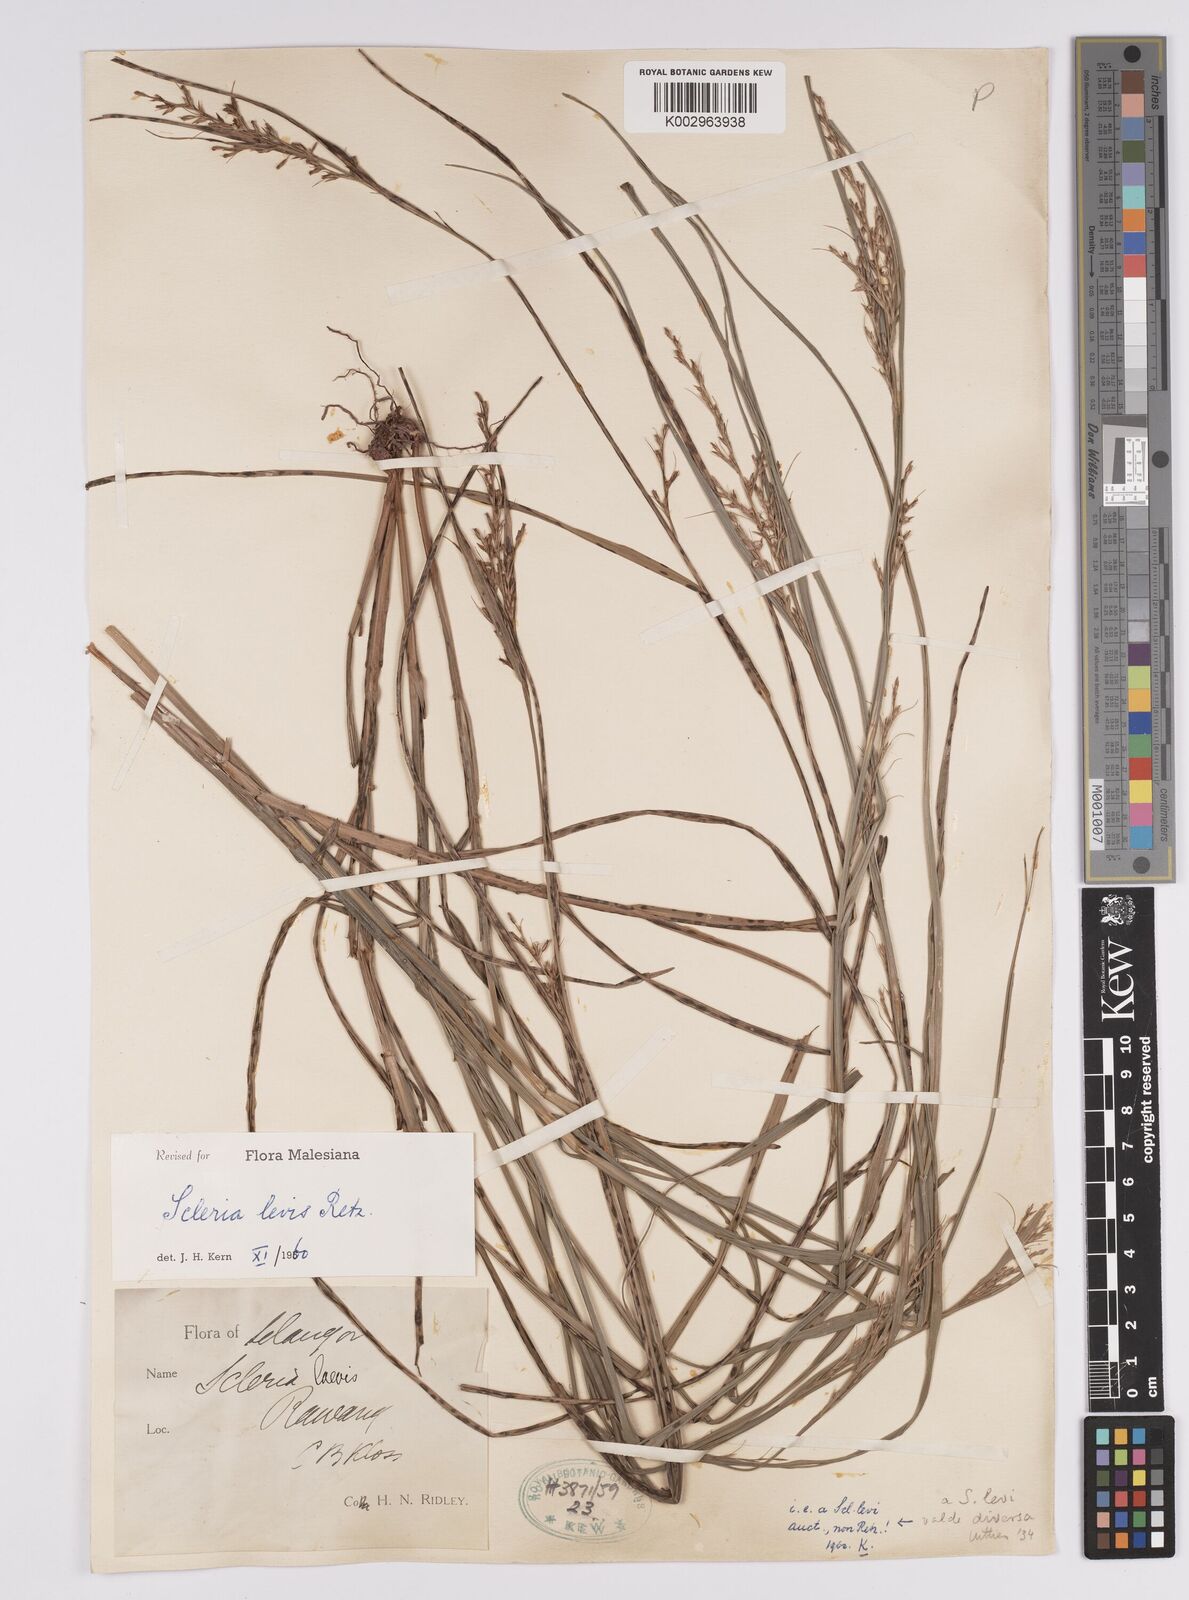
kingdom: Plantae
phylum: Tracheophyta
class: Liliopsida
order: Poales
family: Cyperaceae
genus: Scleria
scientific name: Scleria levis
